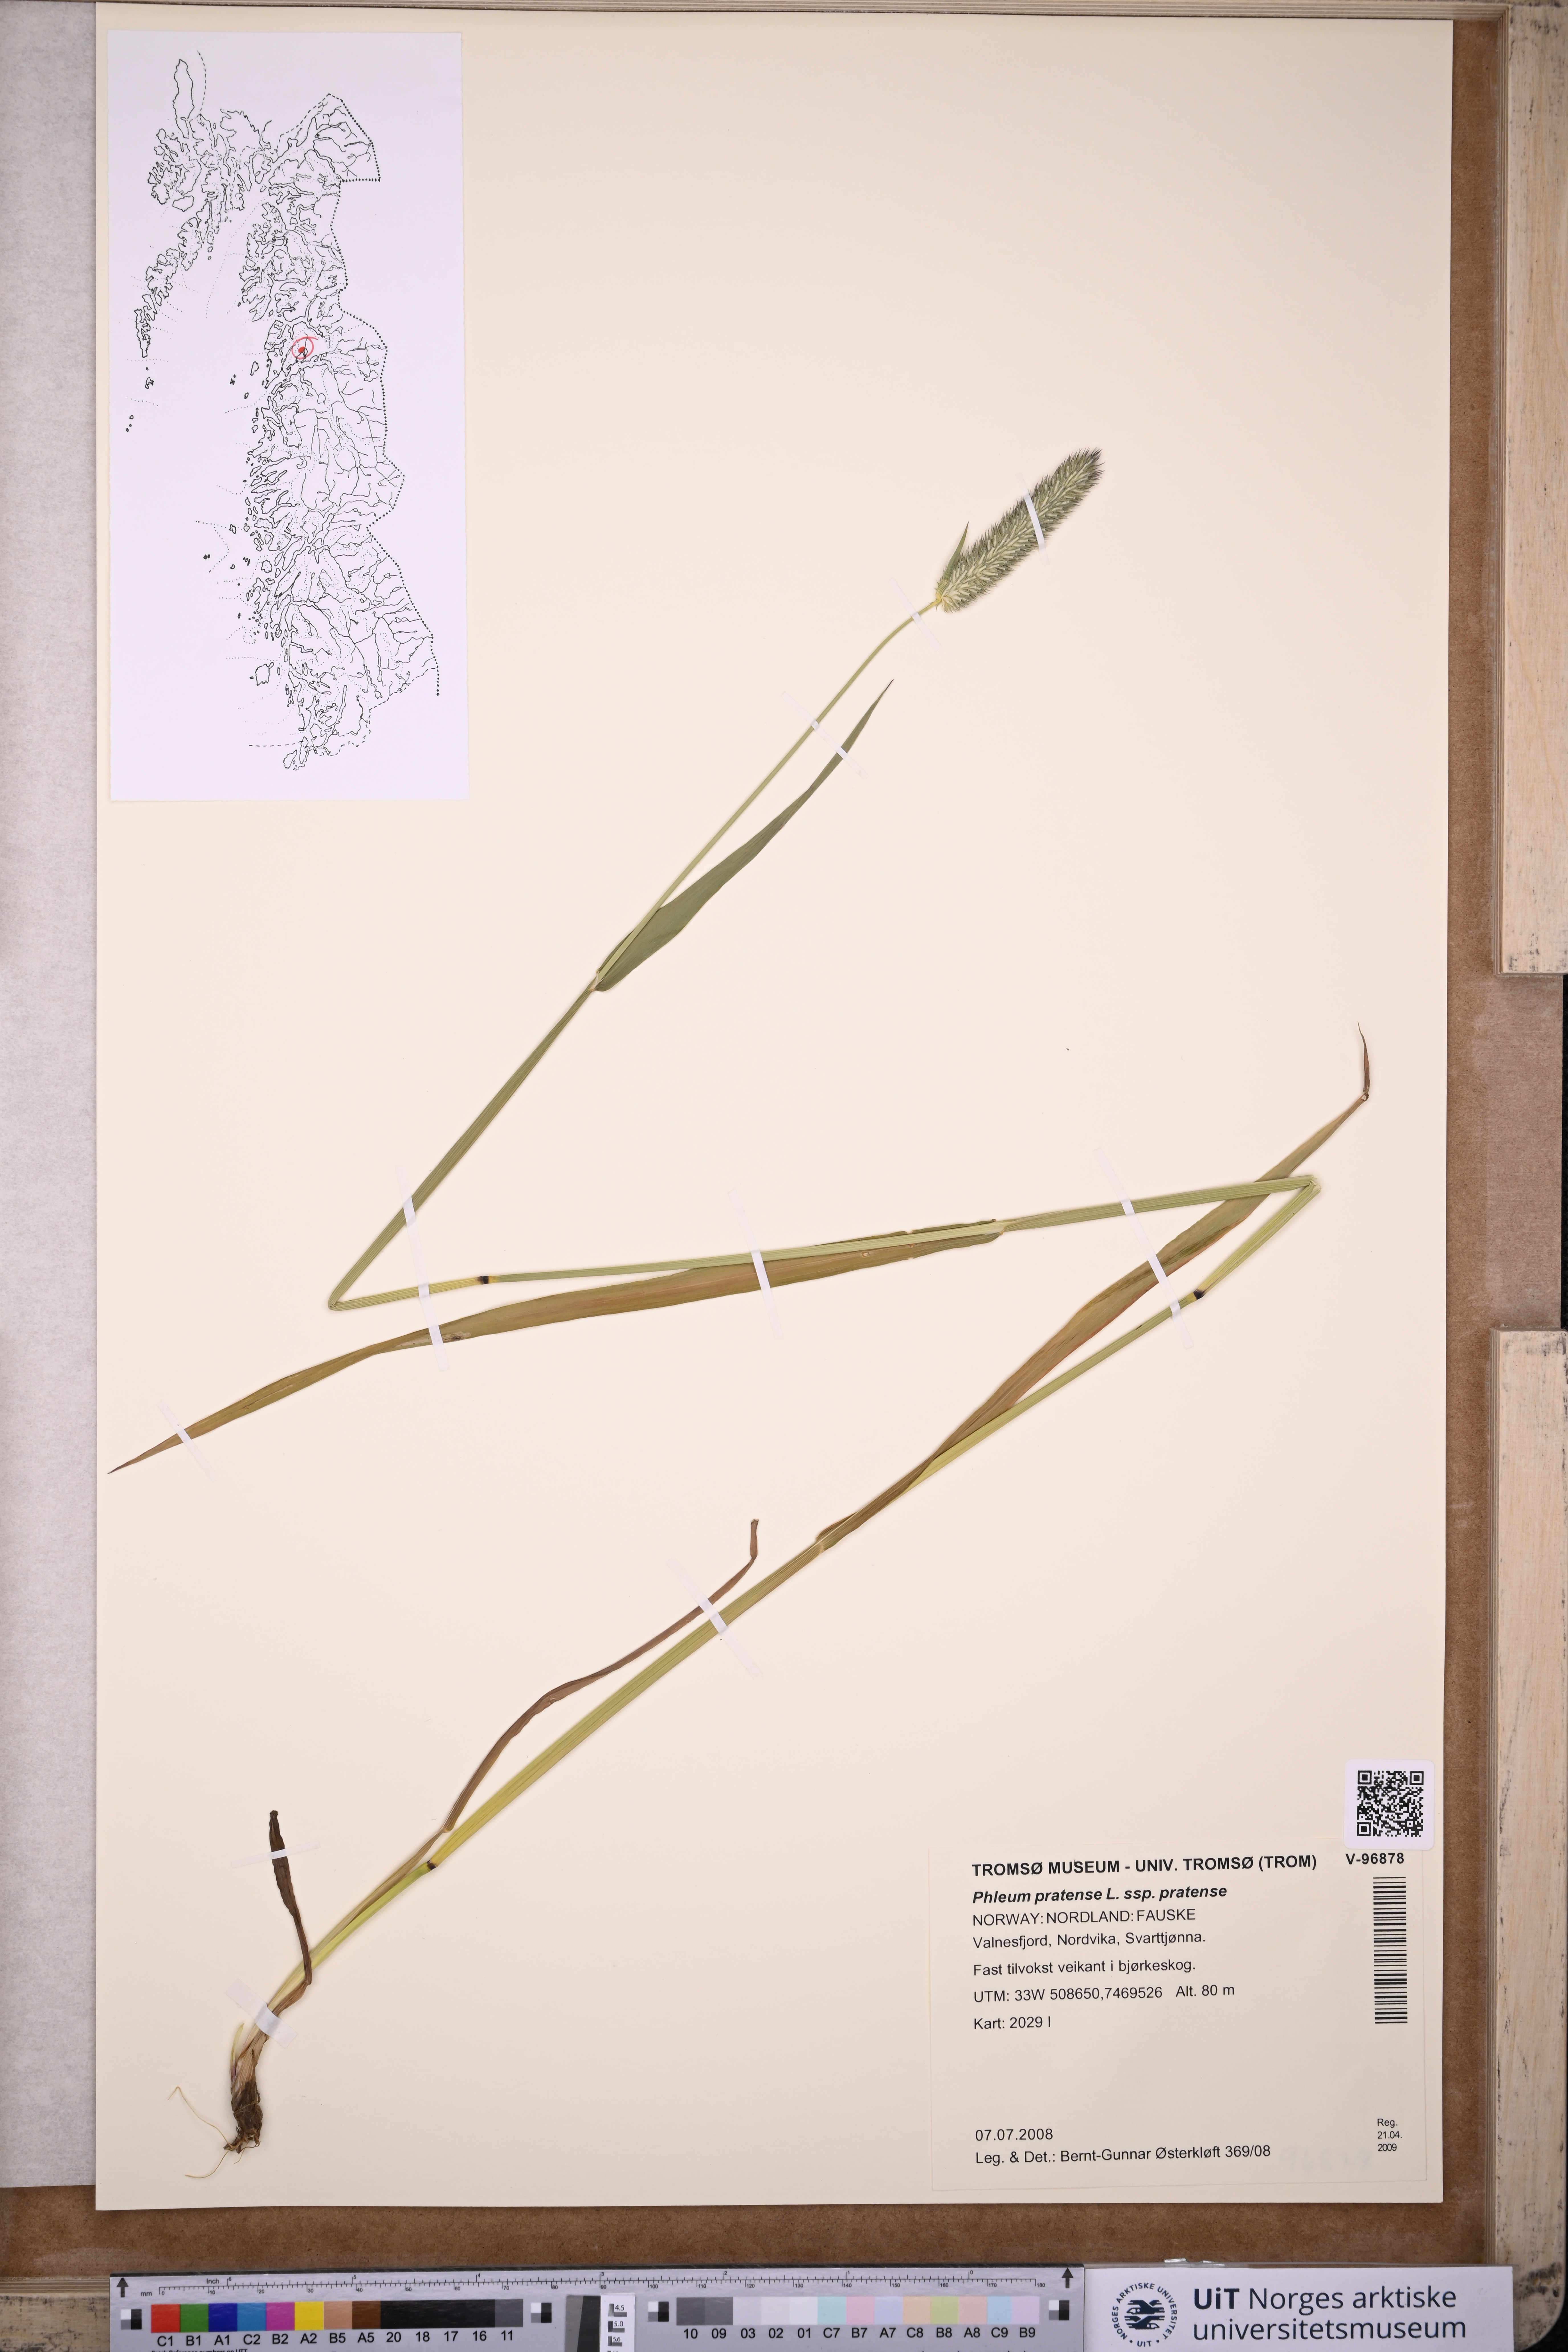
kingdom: Plantae
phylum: Tracheophyta
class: Liliopsida
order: Poales
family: Poaceae
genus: Phleum
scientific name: Phleum pratense
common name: Timothy grass
